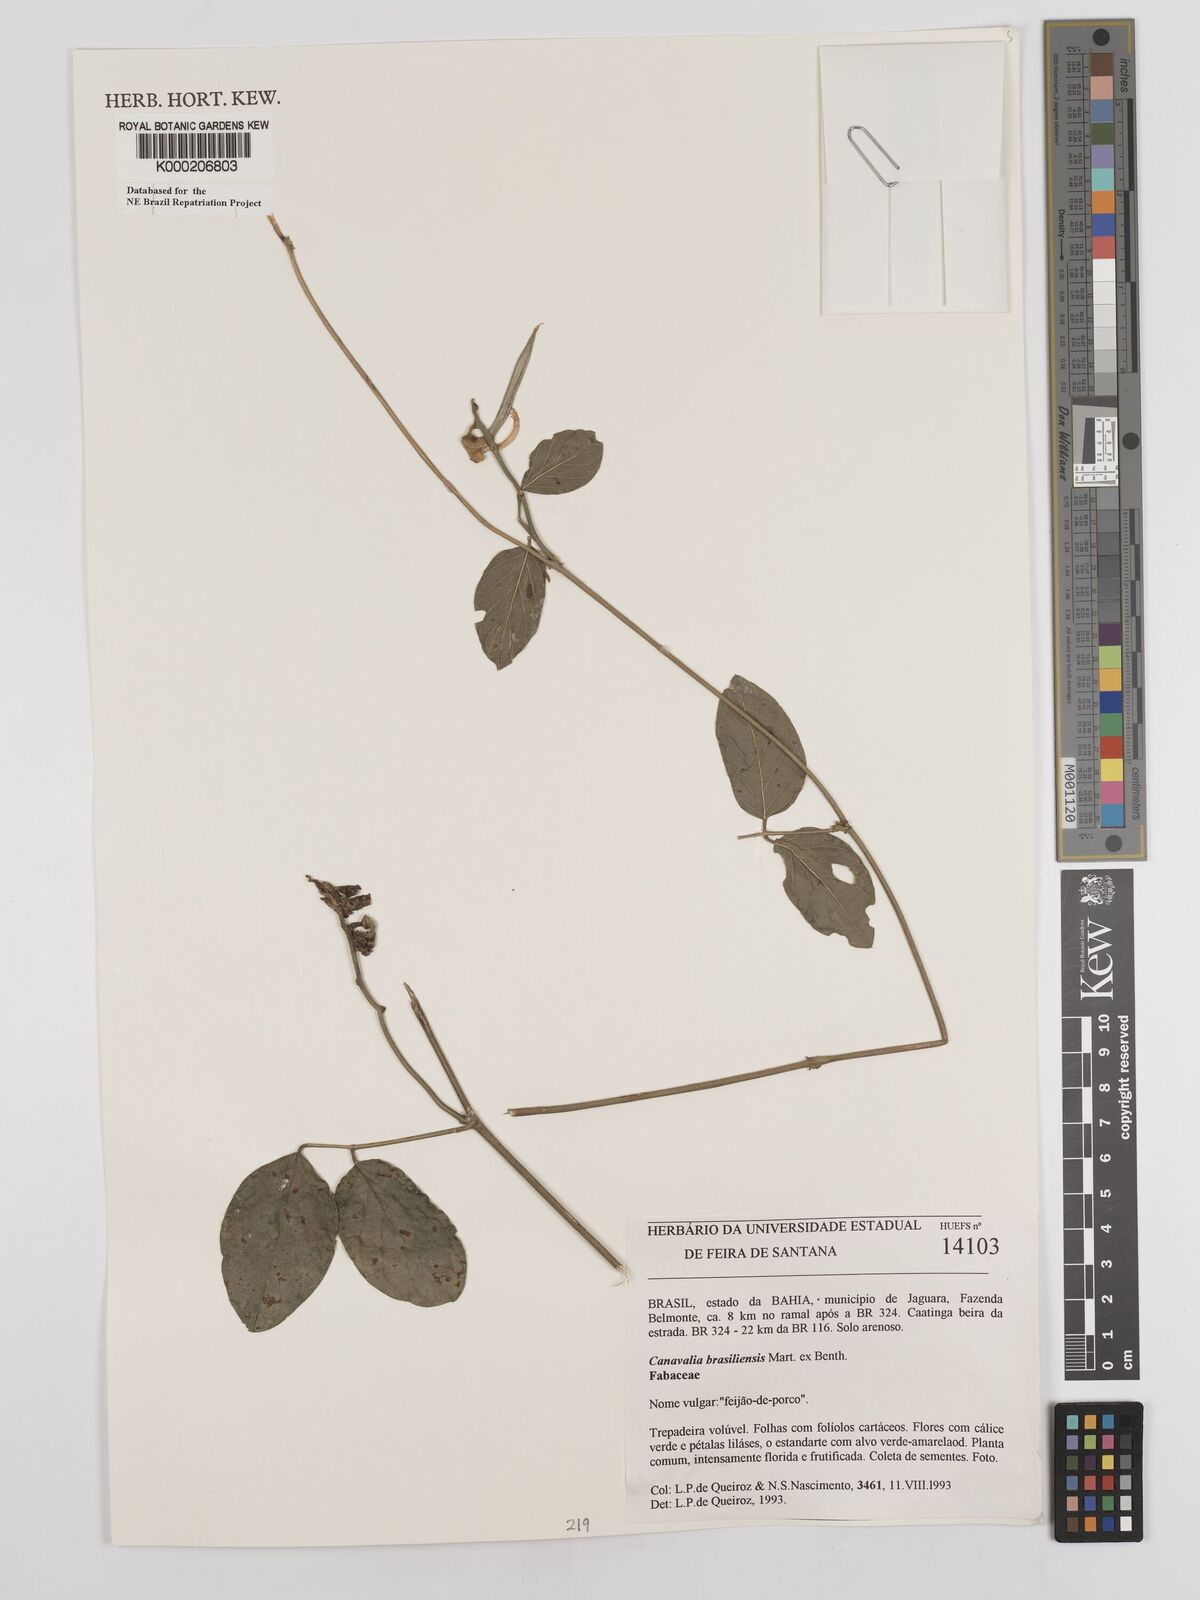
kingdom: Plantae
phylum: Tracheophyta
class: Magnoliopsida
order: Fabales
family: Fabaceae
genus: Canavalia
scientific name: Canavalia brasiliensis
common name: Barbicou-bean
